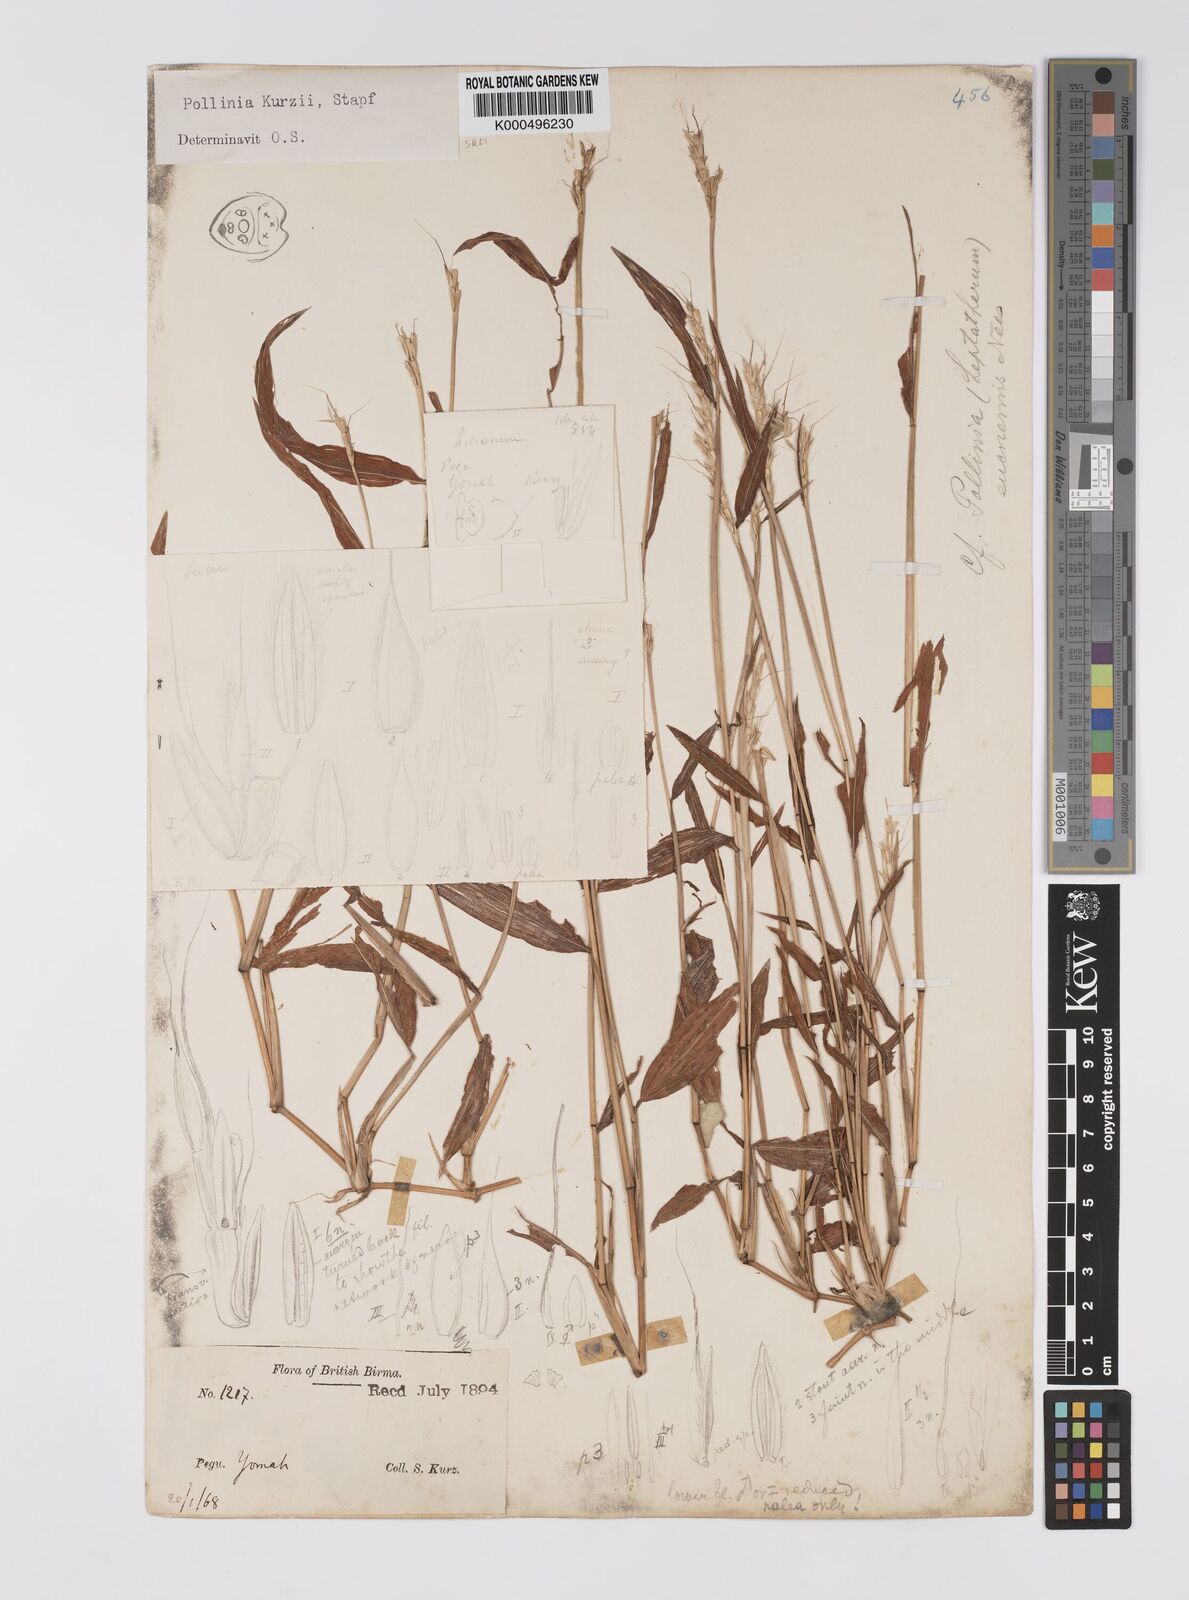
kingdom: Plantae
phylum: Tracheophyta
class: Liliopsida
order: Poales
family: Poaceae
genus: Eulalia
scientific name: Eulalia
